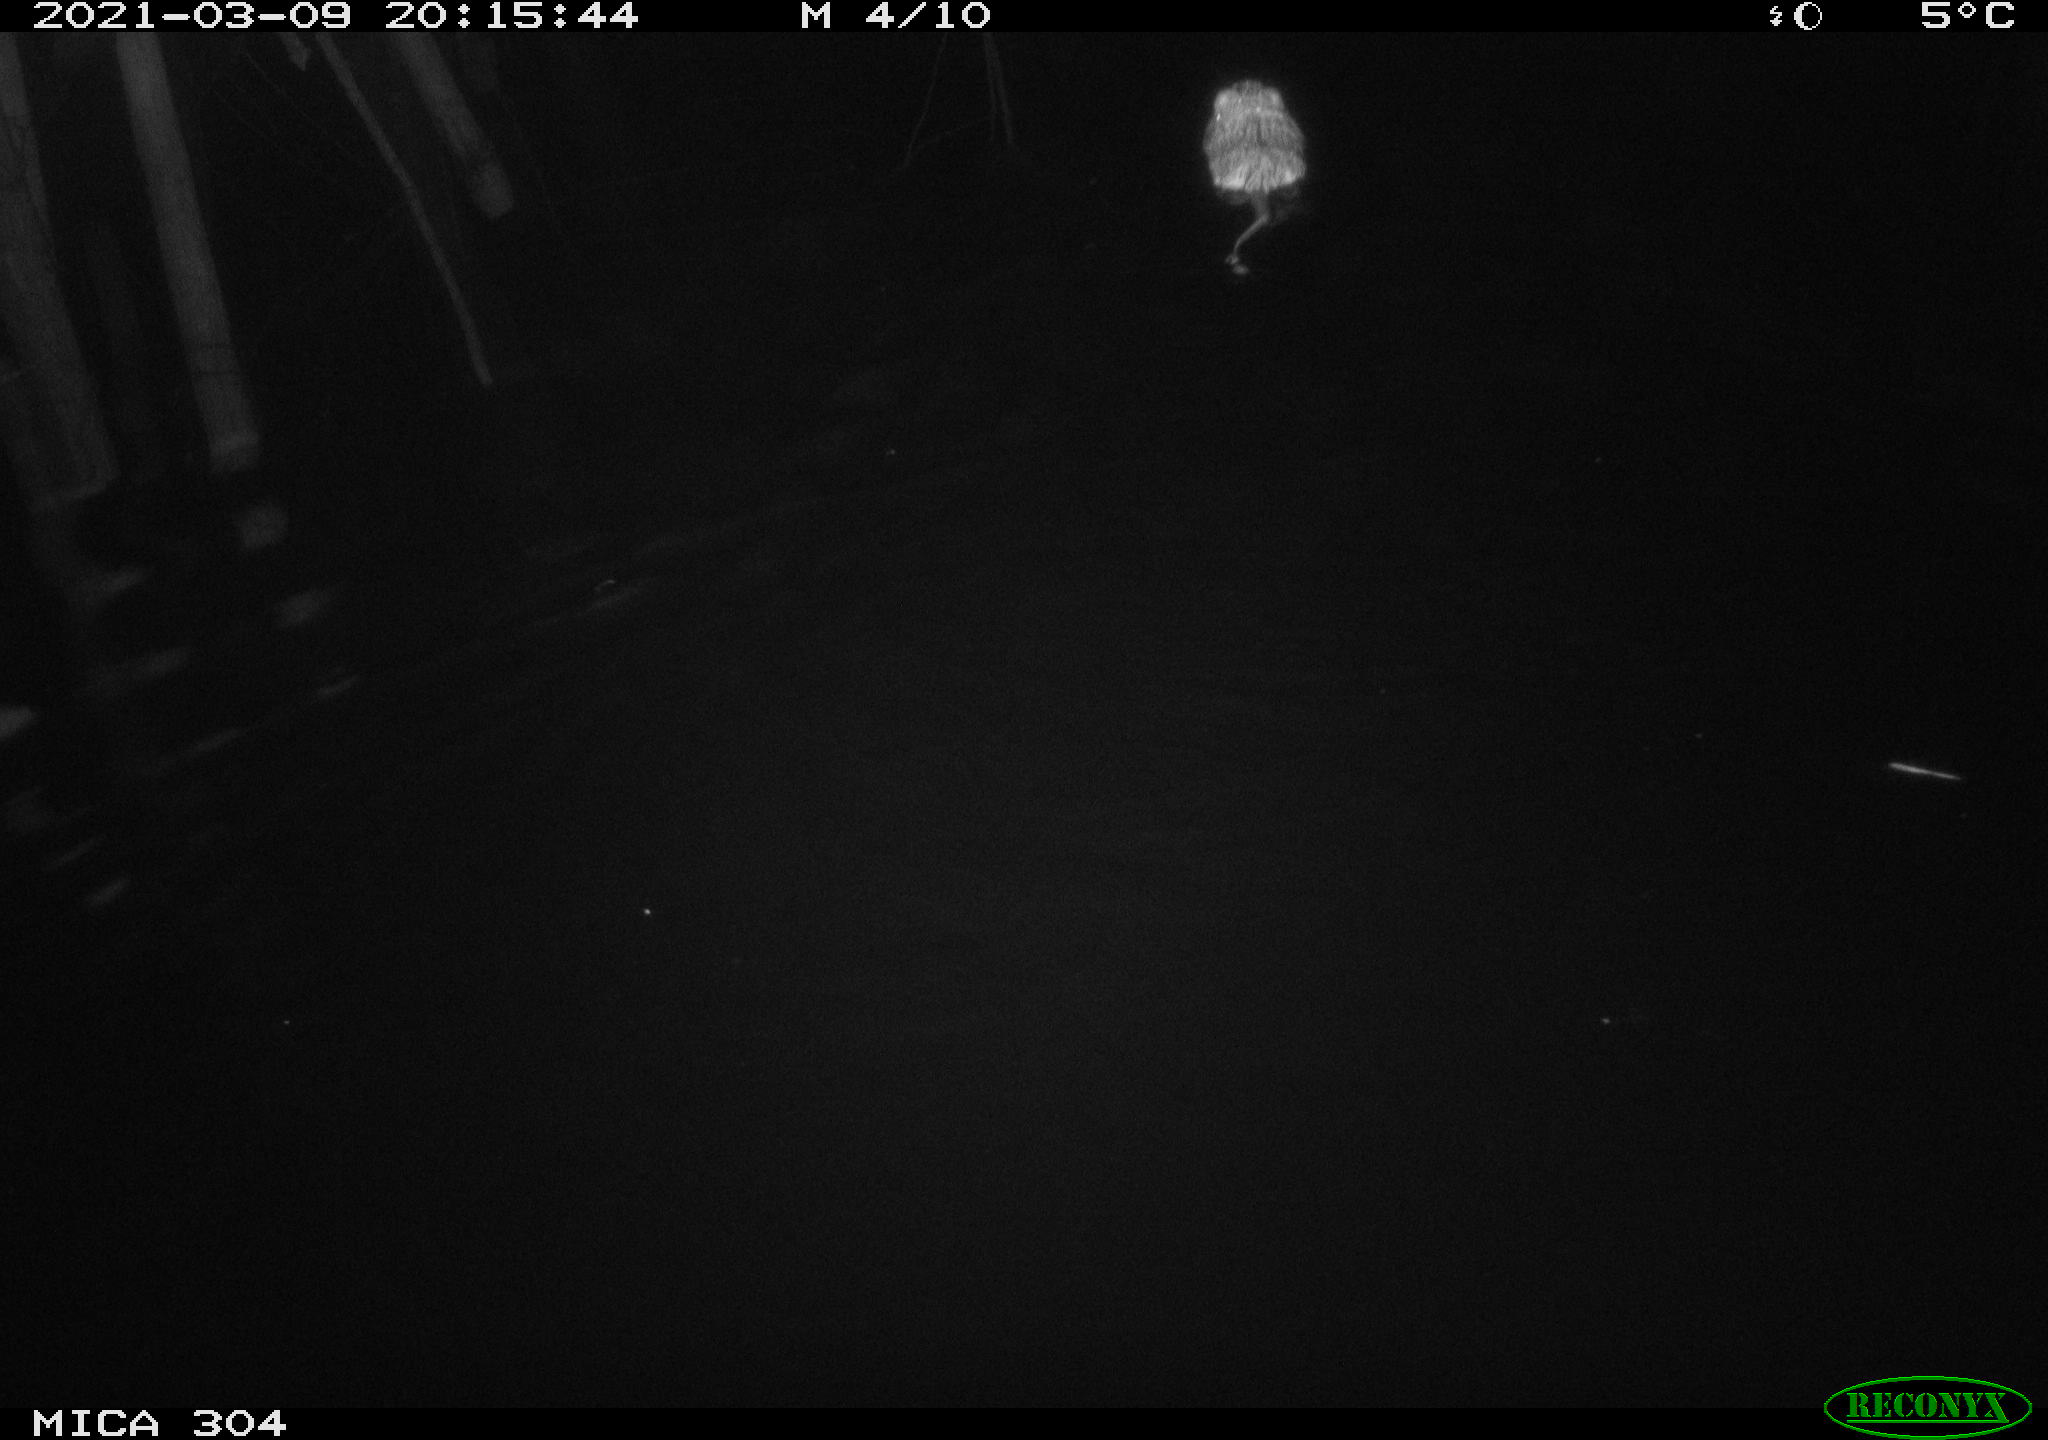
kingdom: Animalia
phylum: Chordata
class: Mammalia
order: Rodentia
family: Cricetidae
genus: Ondatra
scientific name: Ondatra zibethicus
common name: Muskrat
